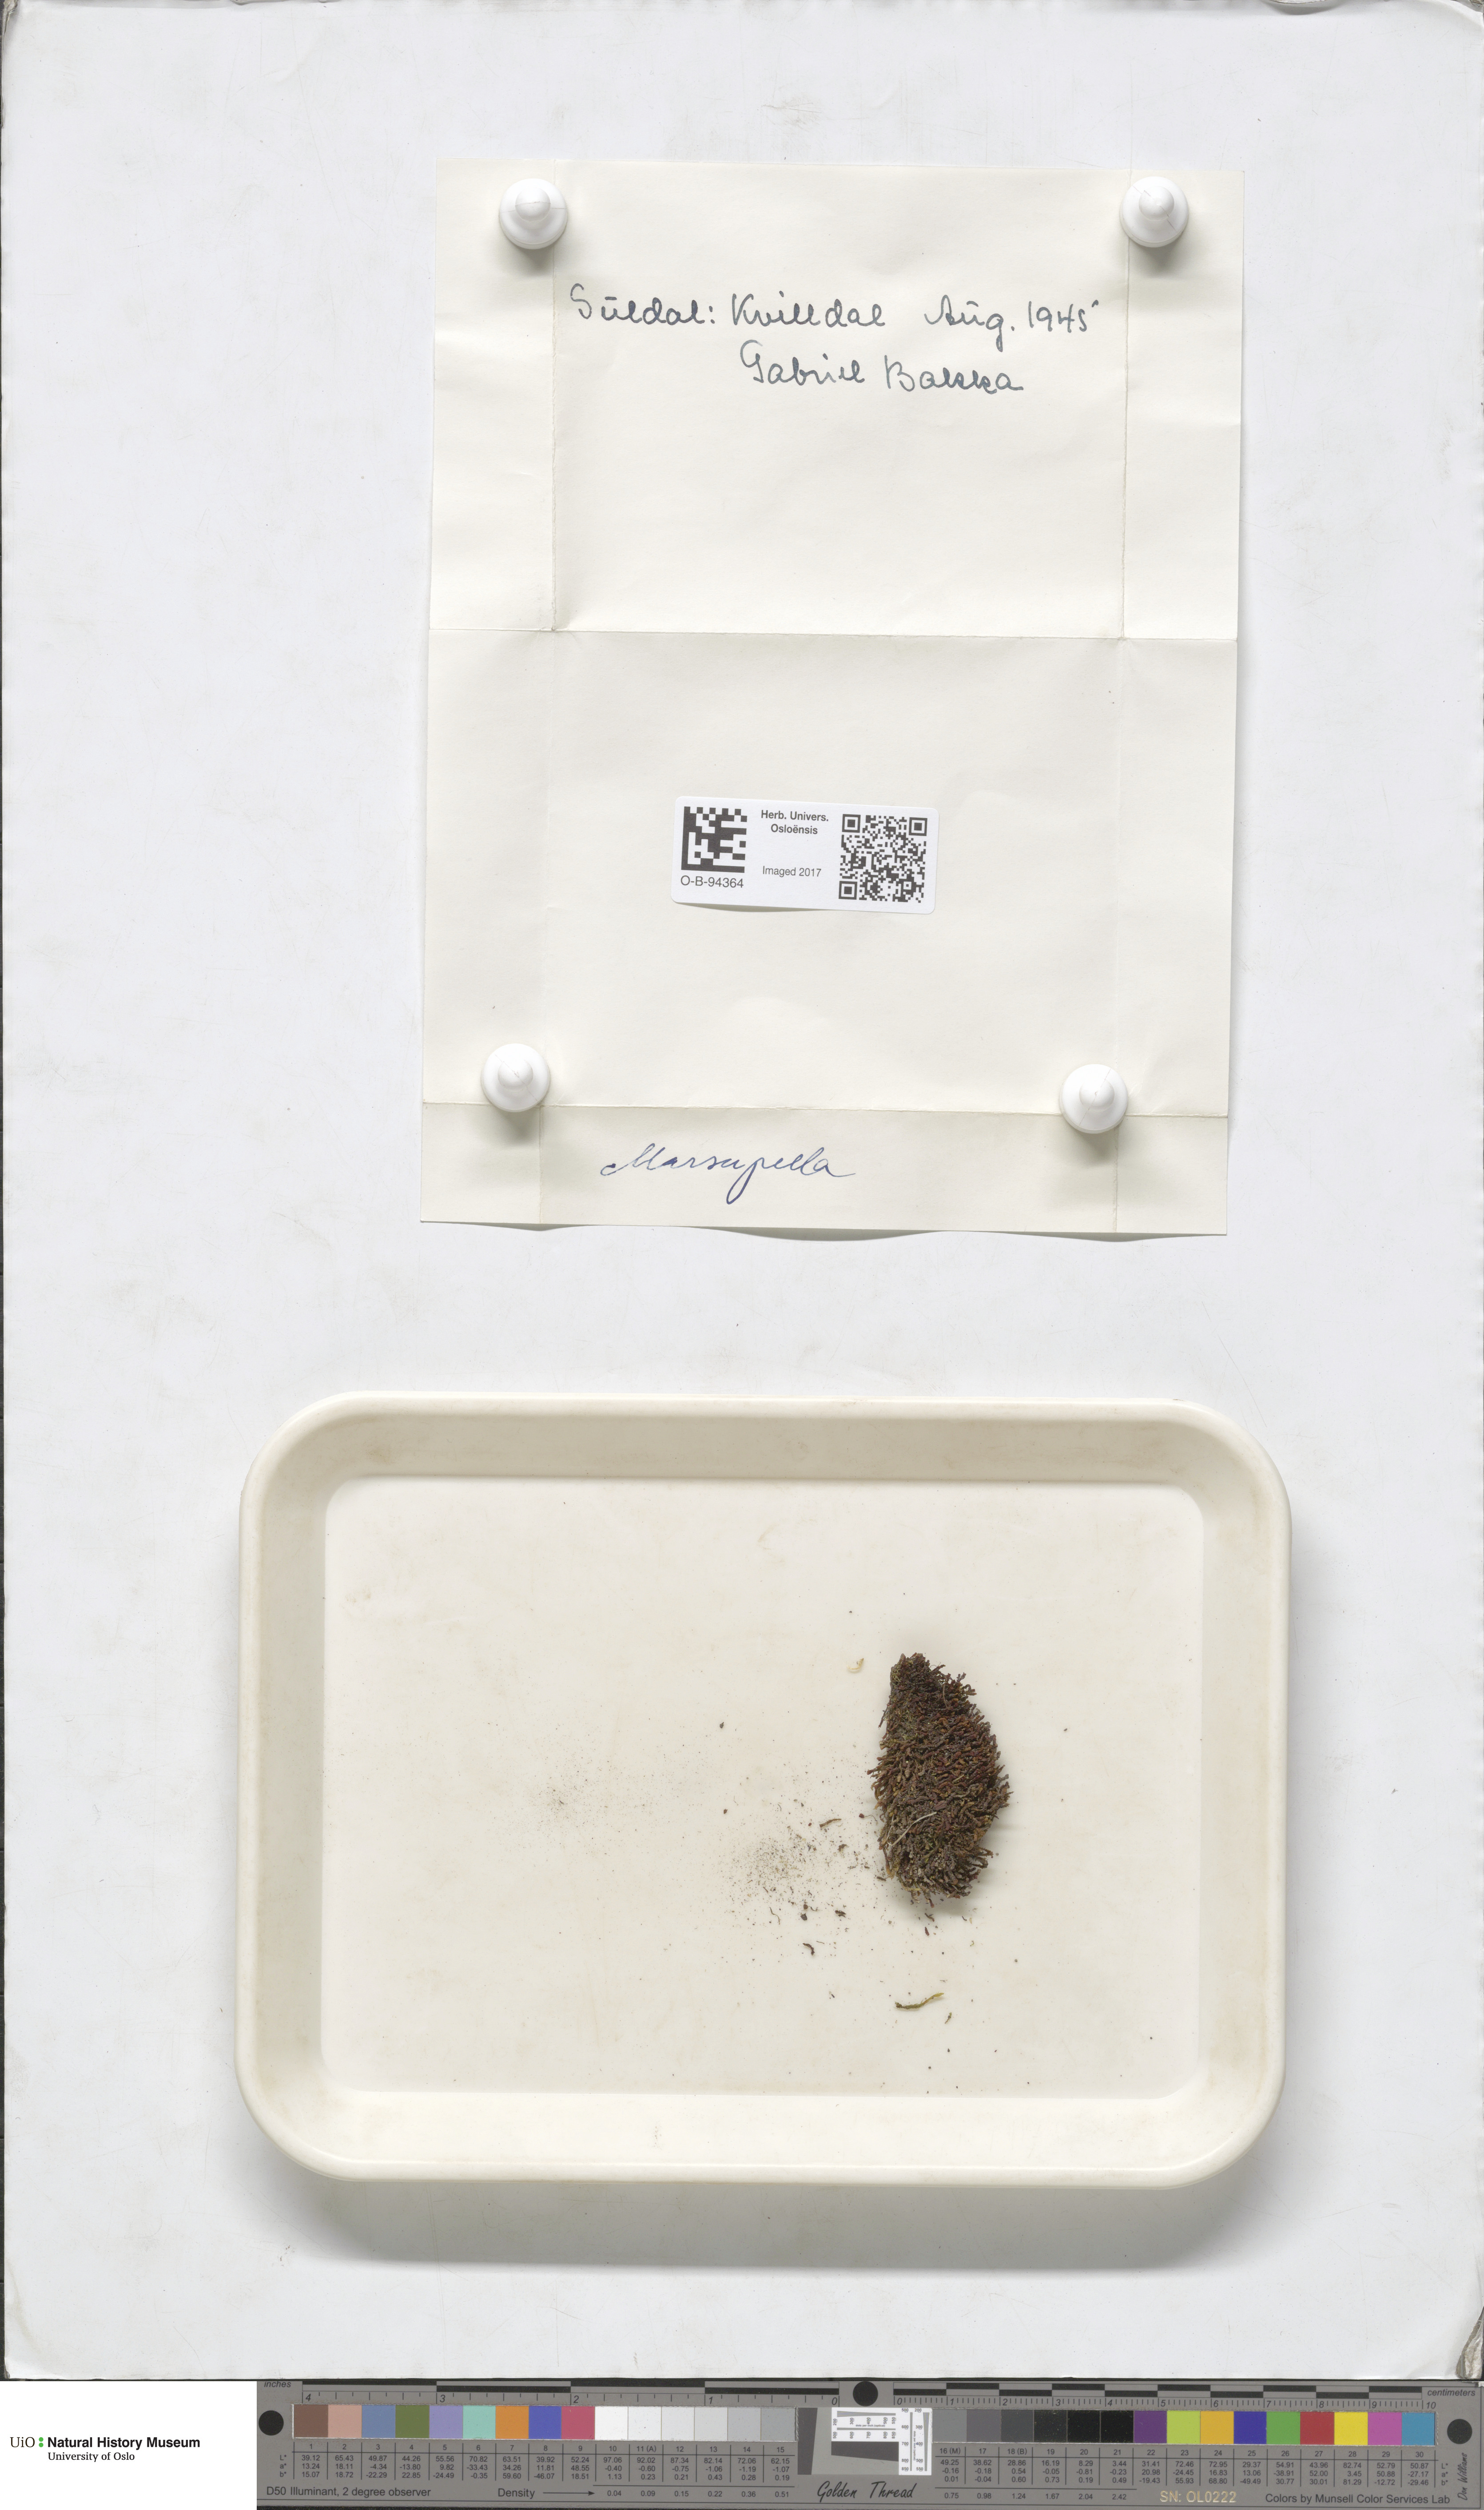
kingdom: Plantae
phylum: Marchantiophyta
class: Jungermanniopsida
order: Jungermanniales
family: Gymnomitriaceae
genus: Marsupella
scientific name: Marsupella
